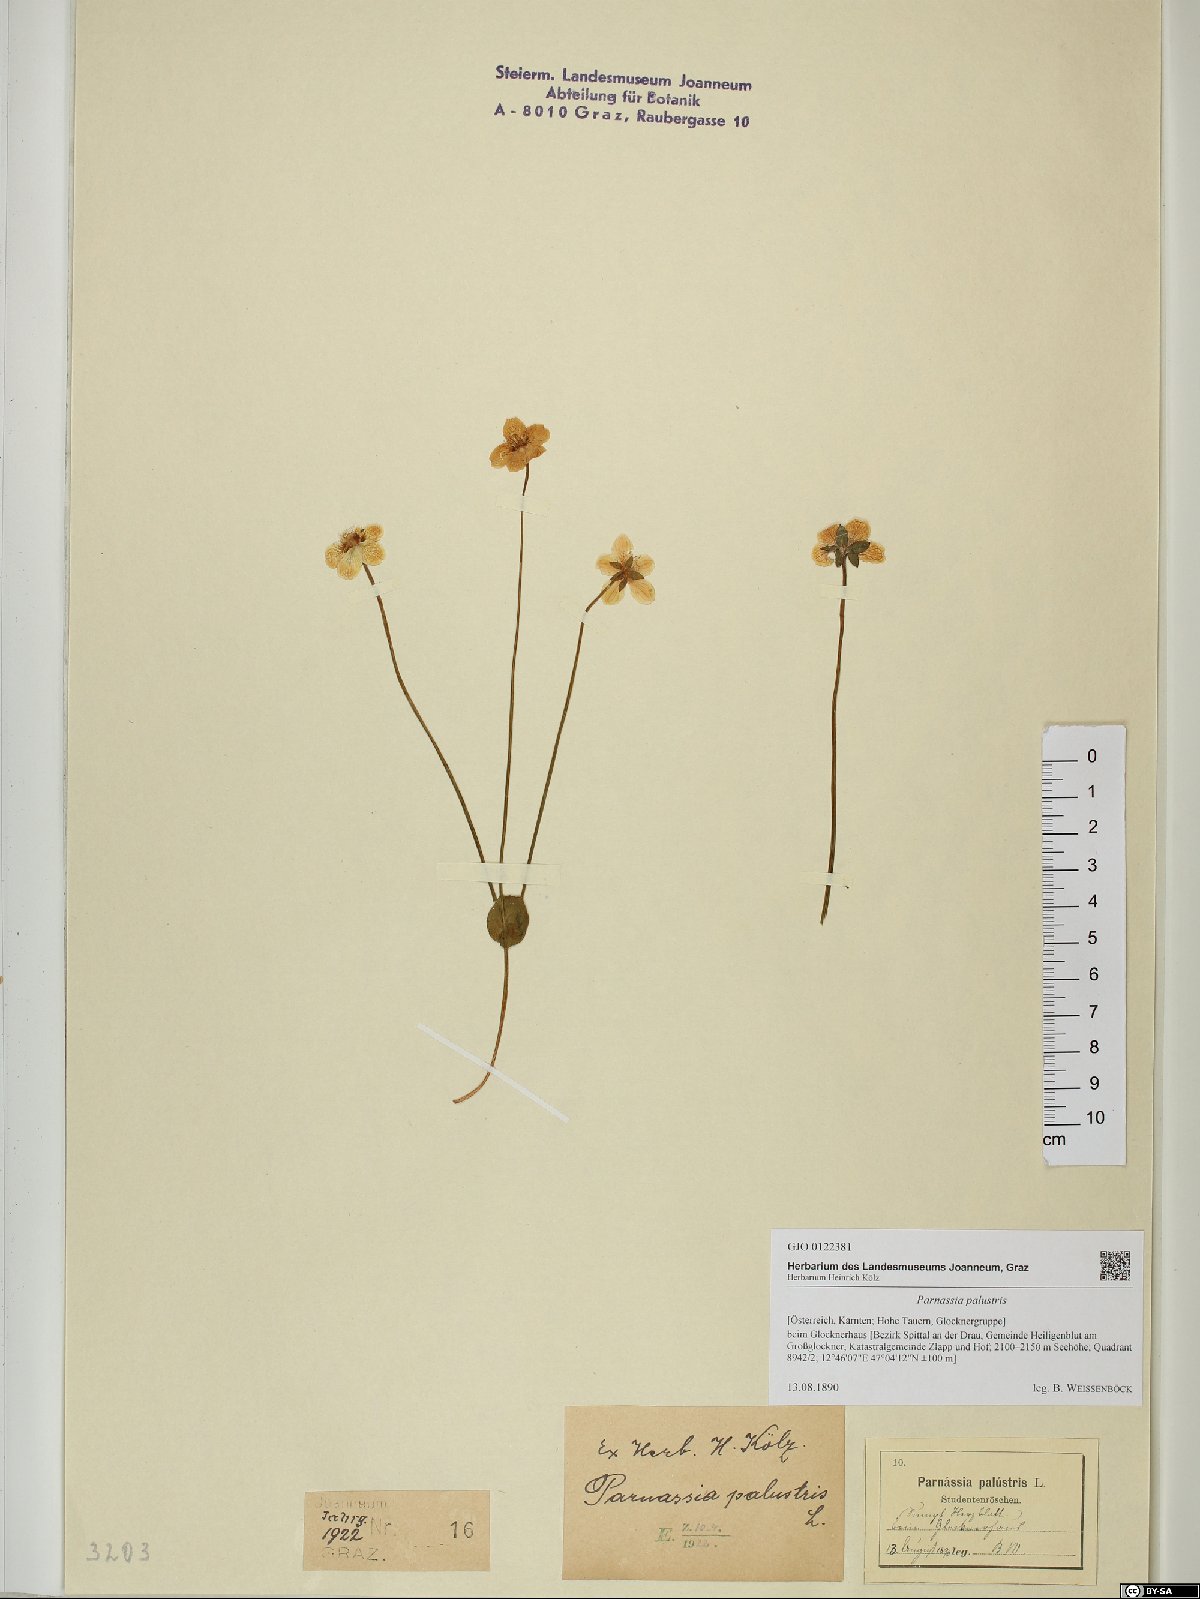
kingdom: Plantae
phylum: Tracheophyta
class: Magnoliopsida
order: Celastrales
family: Parnassiaceae
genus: Parnassia
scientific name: Parnassia palustris
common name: Grass-of-parnassus
